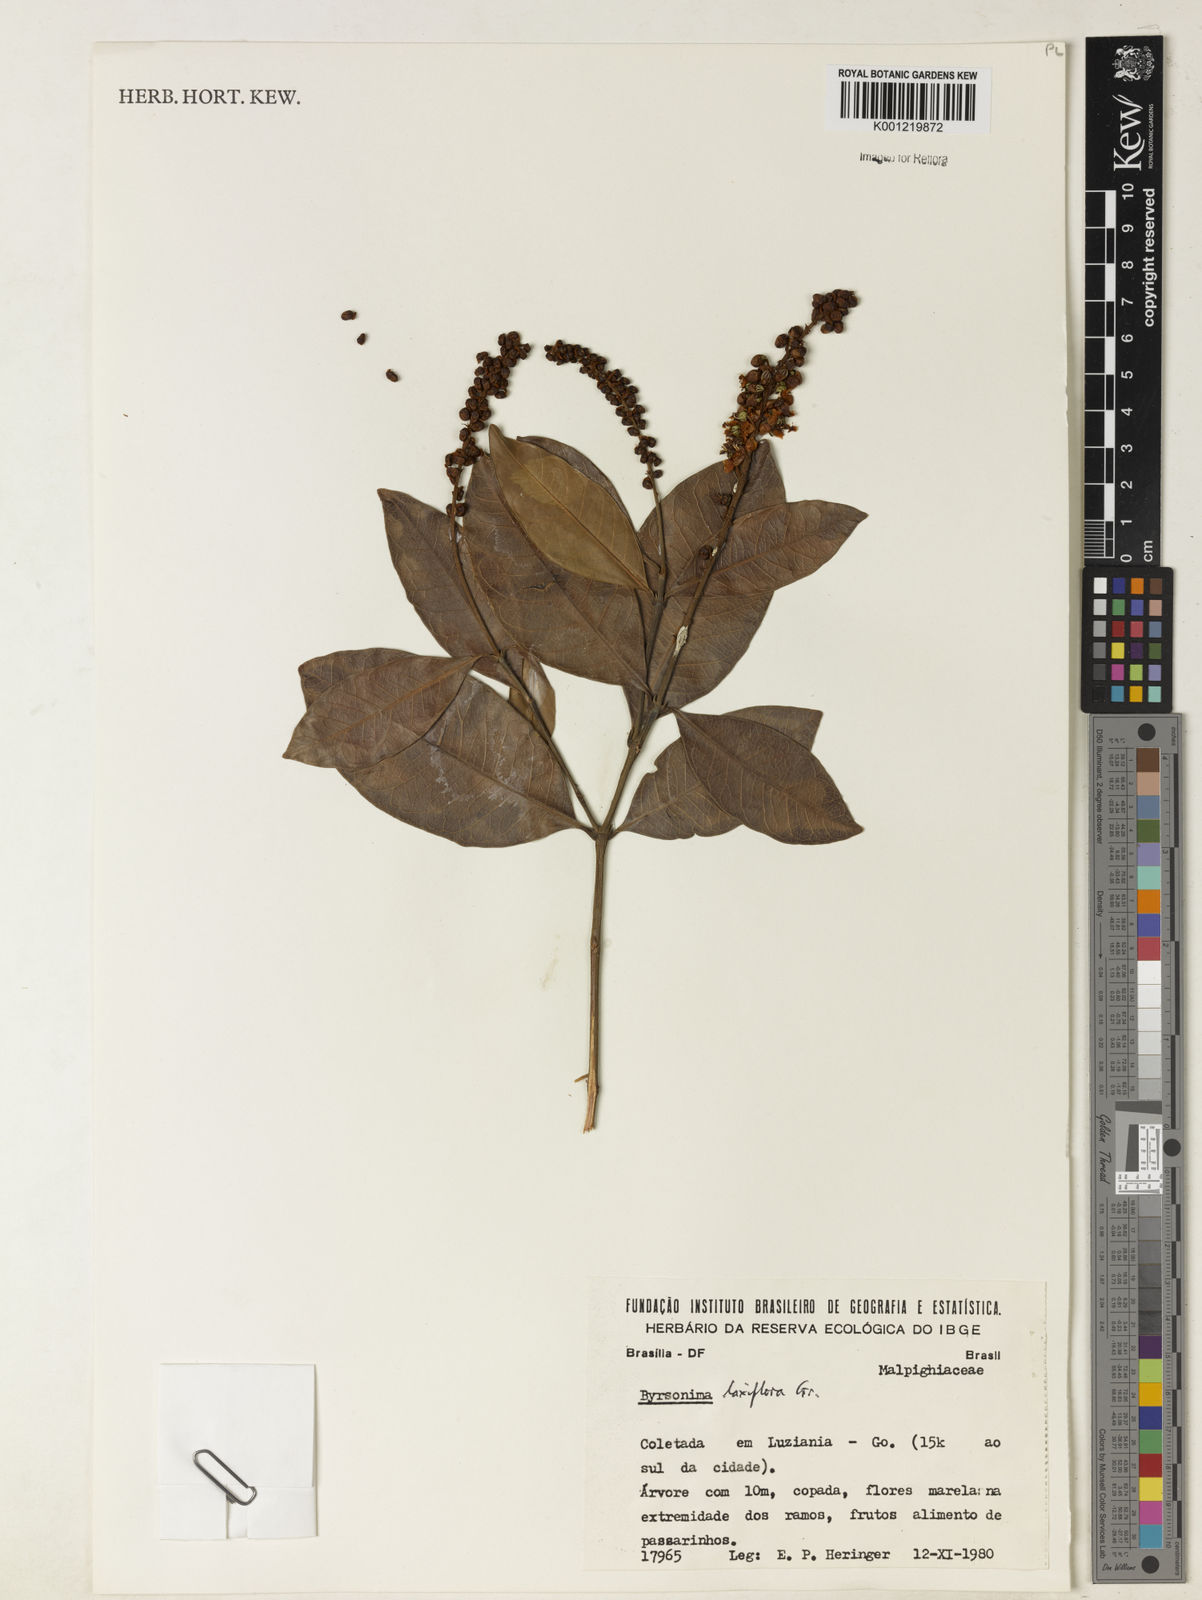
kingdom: Plantae
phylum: Tracheophyta
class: Magnoliopsida
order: Malpighiales
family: Malpighiaceae
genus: Byrsonima
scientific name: Byrsonima laxiflora
